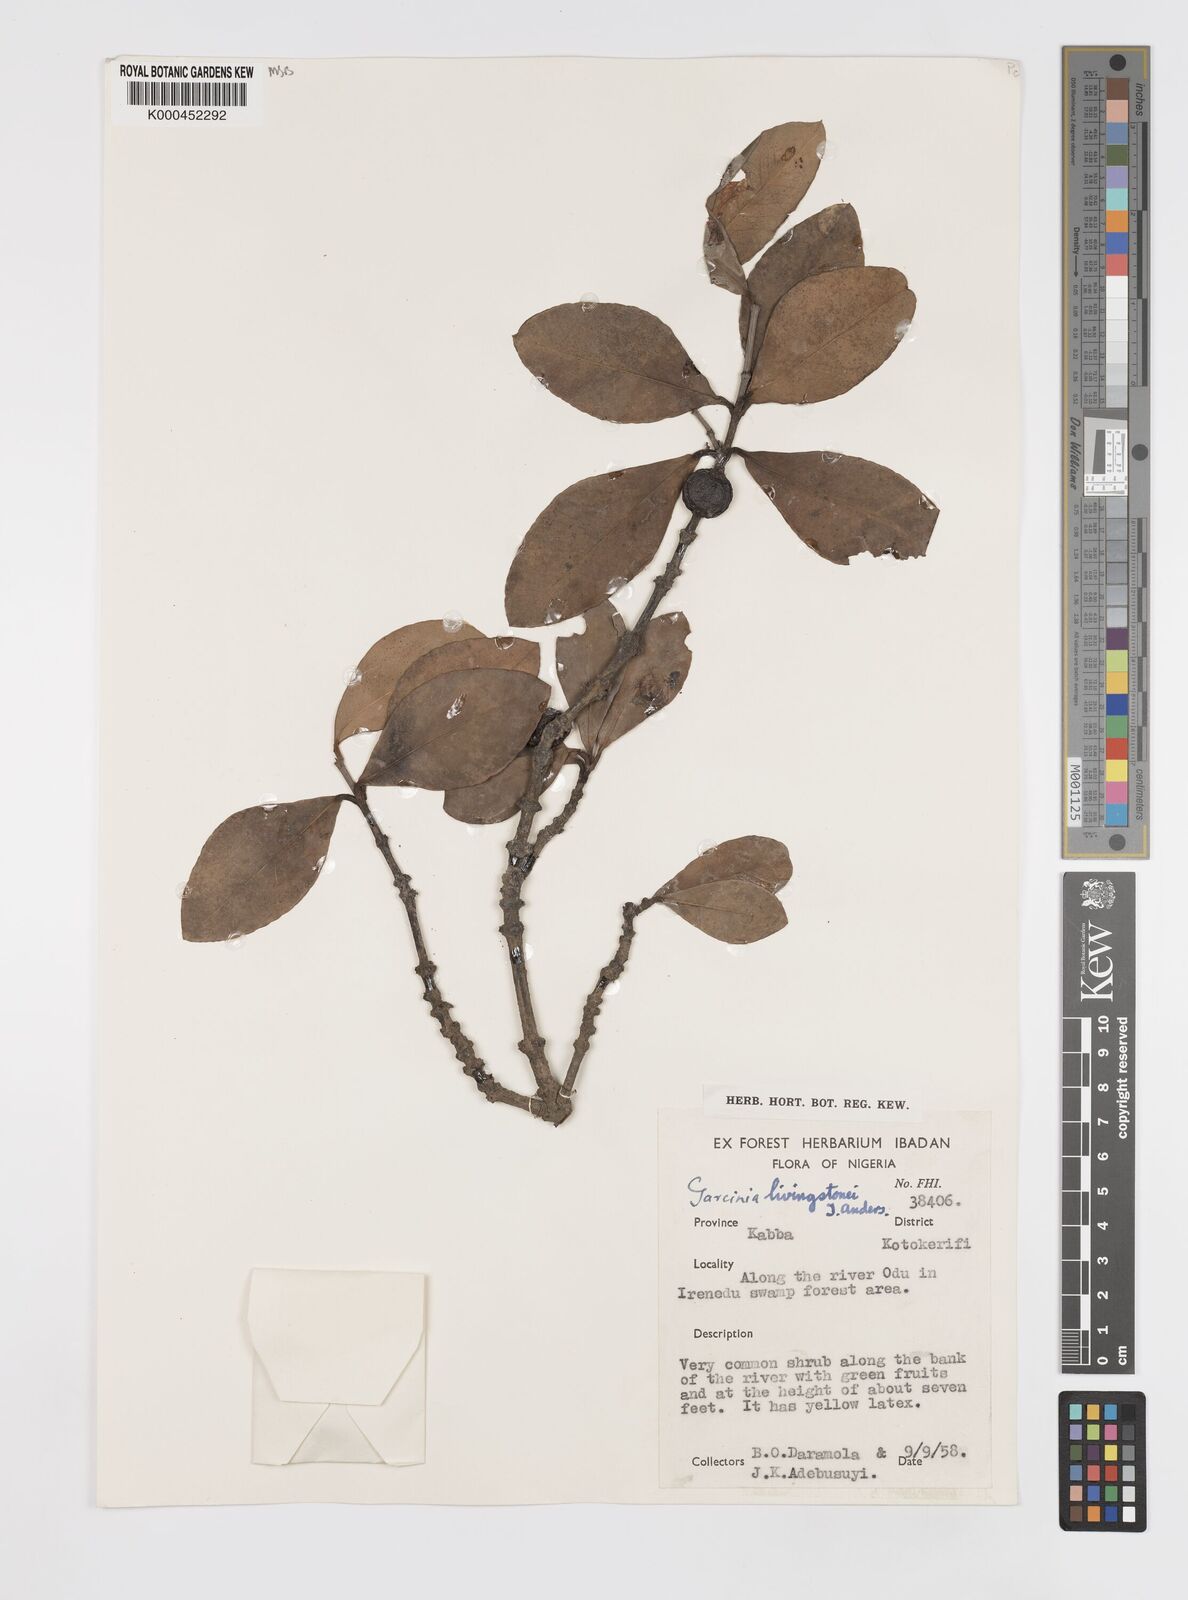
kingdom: Plantae
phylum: Tracheophyta
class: Magnoliopsida
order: Malpighiales
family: Clusiaceae
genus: Garcinia
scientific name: Garcinia livingstonei
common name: African mangosteen
